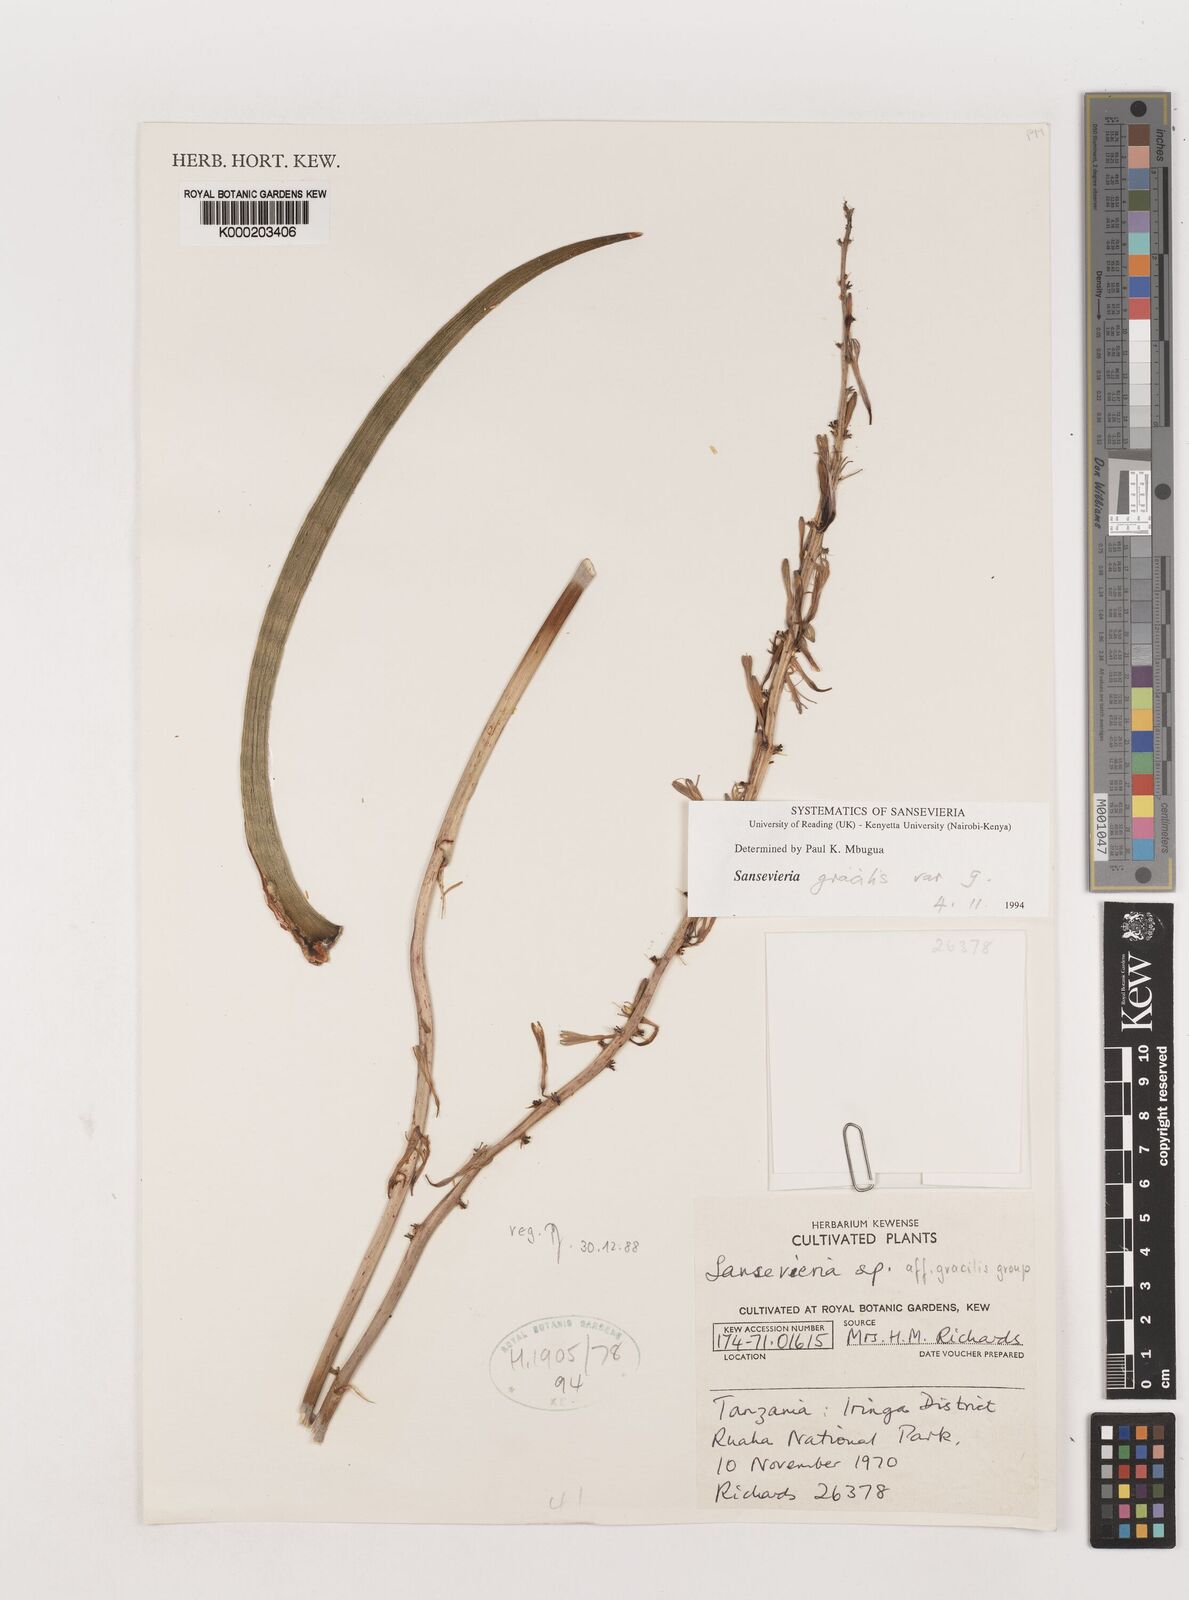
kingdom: Plantae
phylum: Tracheophyta
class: Liliopsida
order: Asparagales
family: Asparagaceae
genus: Dracaena
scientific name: Dracaena serpenta
